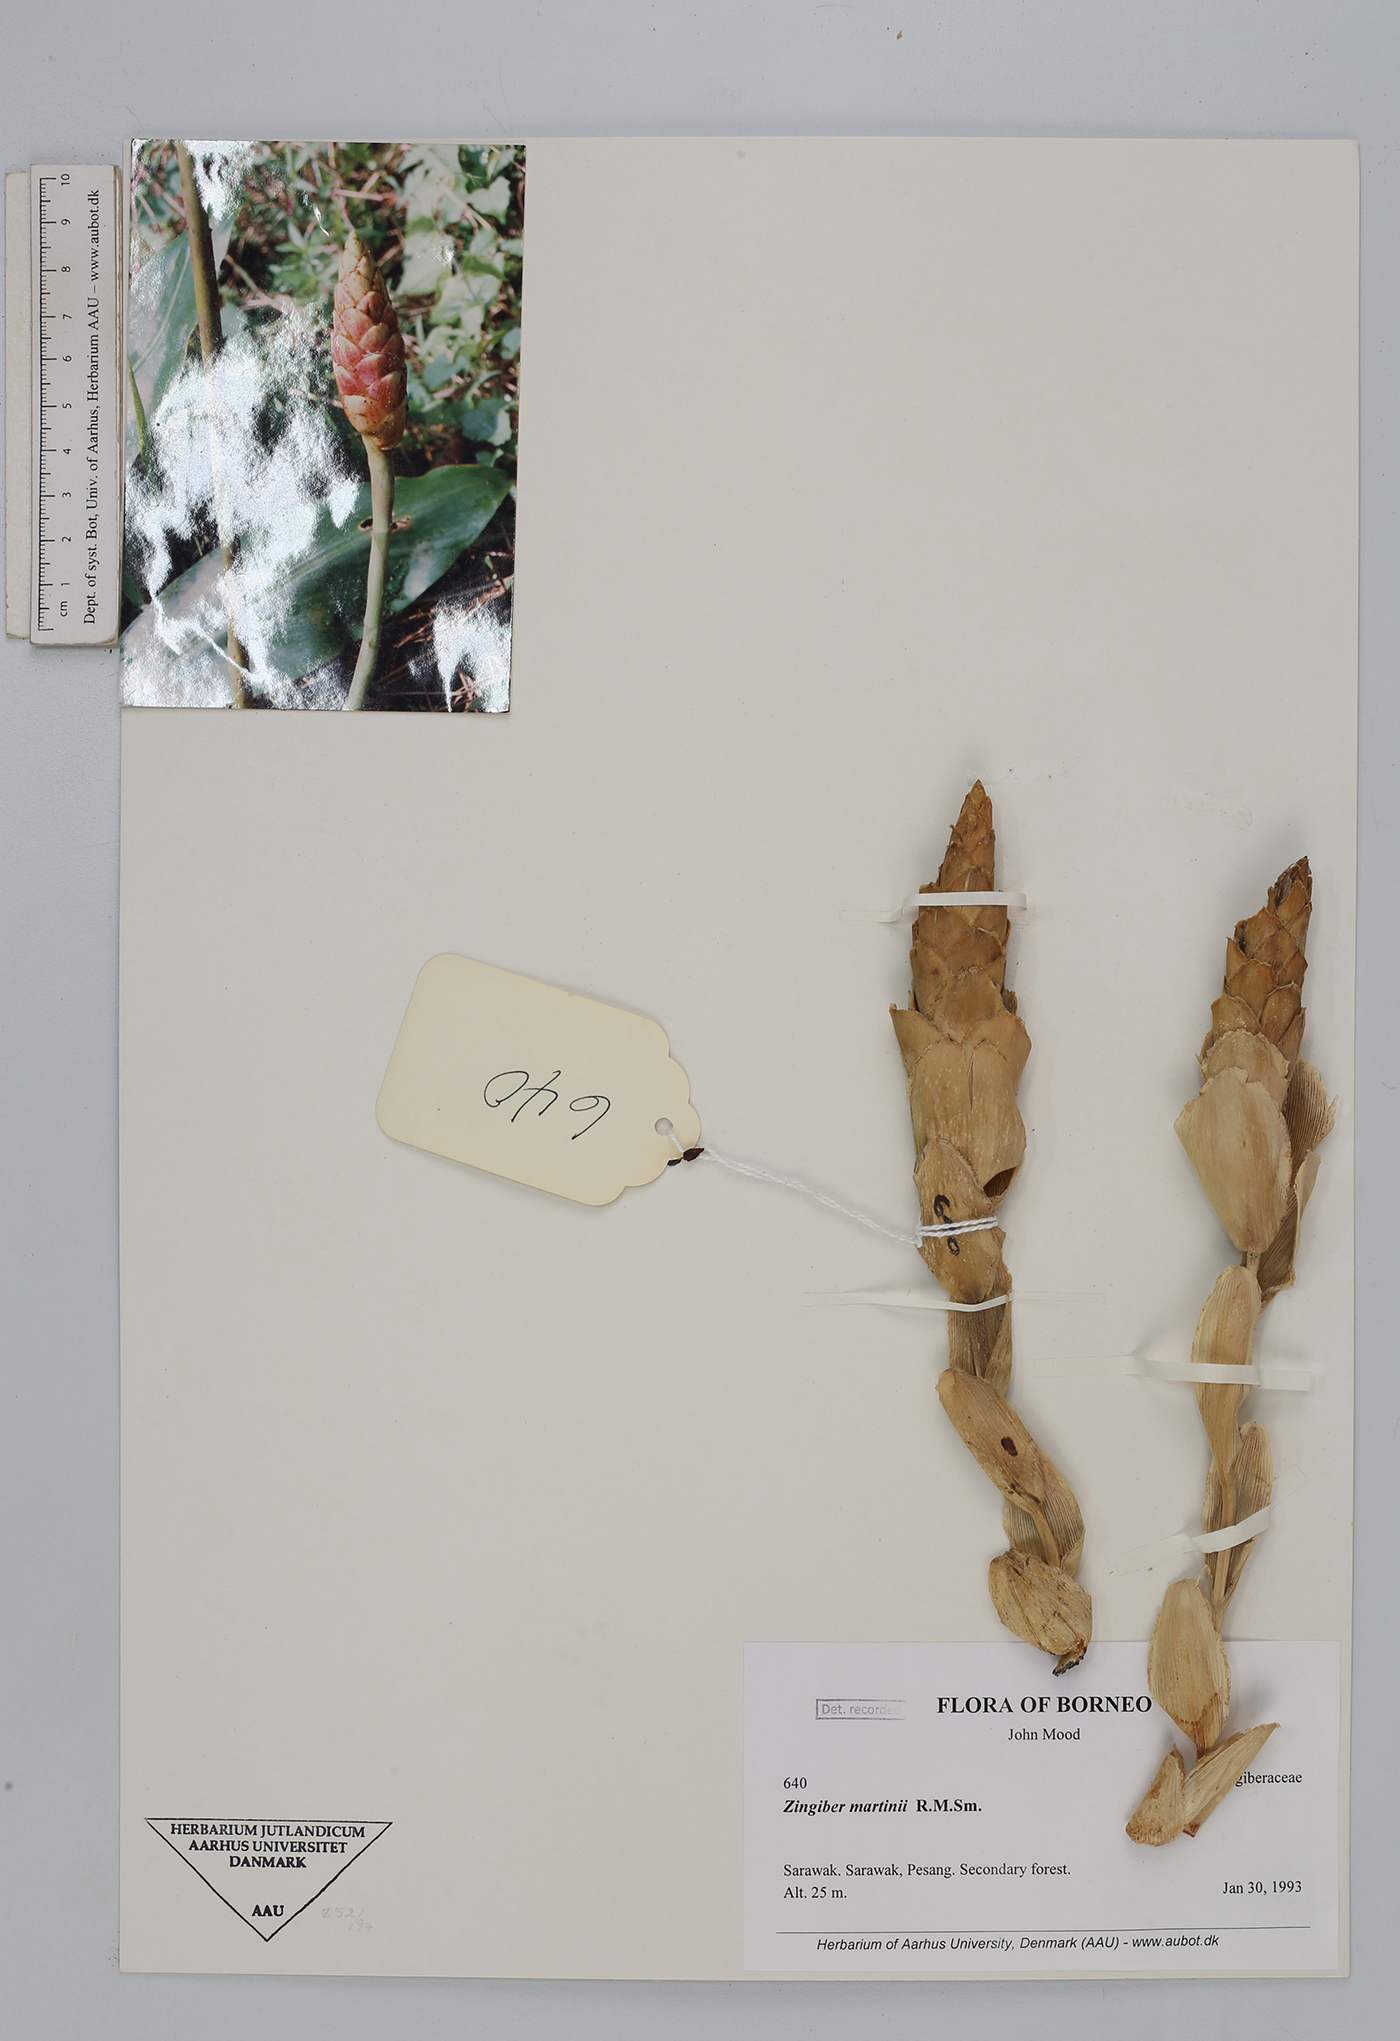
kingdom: Plantae
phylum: Tracheophyta
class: Liliopsida
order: Zingiberales
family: Zingiberaceae
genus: Zingiber
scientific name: Zingiber martini
